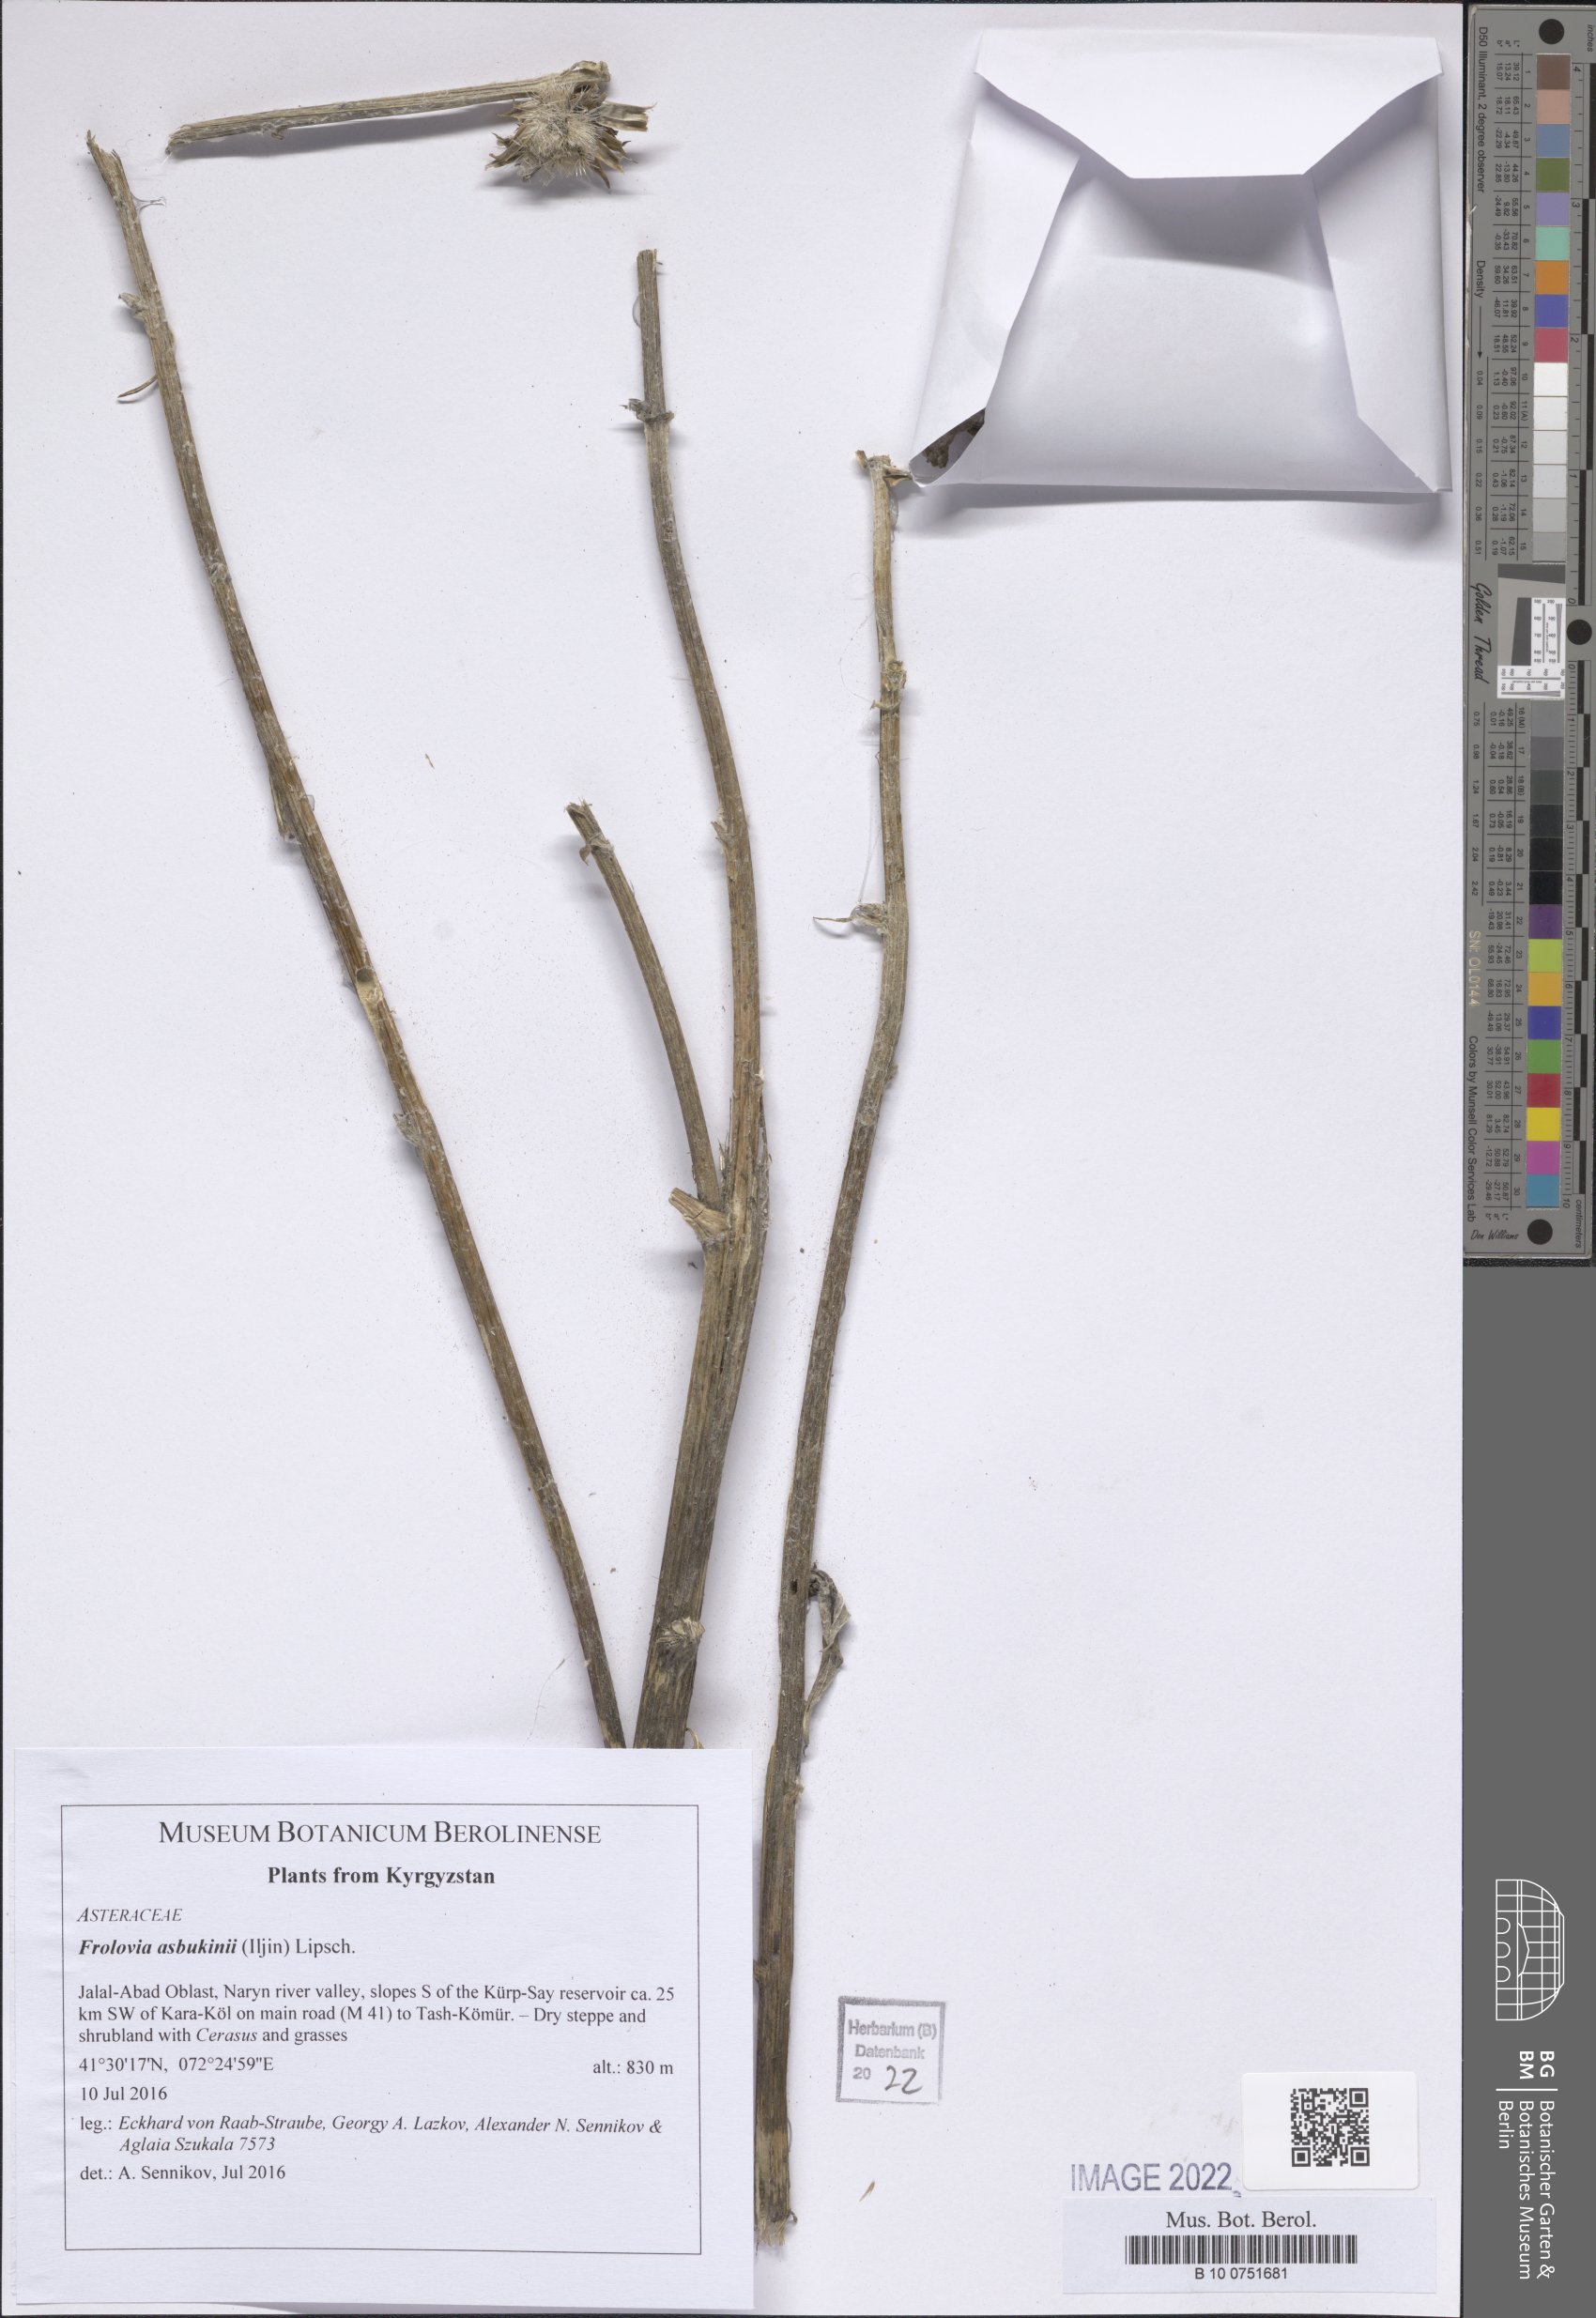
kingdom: Plantae
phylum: Tracheophyta
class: Magnoliopsida
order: Asterales
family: Asteraceae
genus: Dolomiaea
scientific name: Dolomiaea asbukinii
